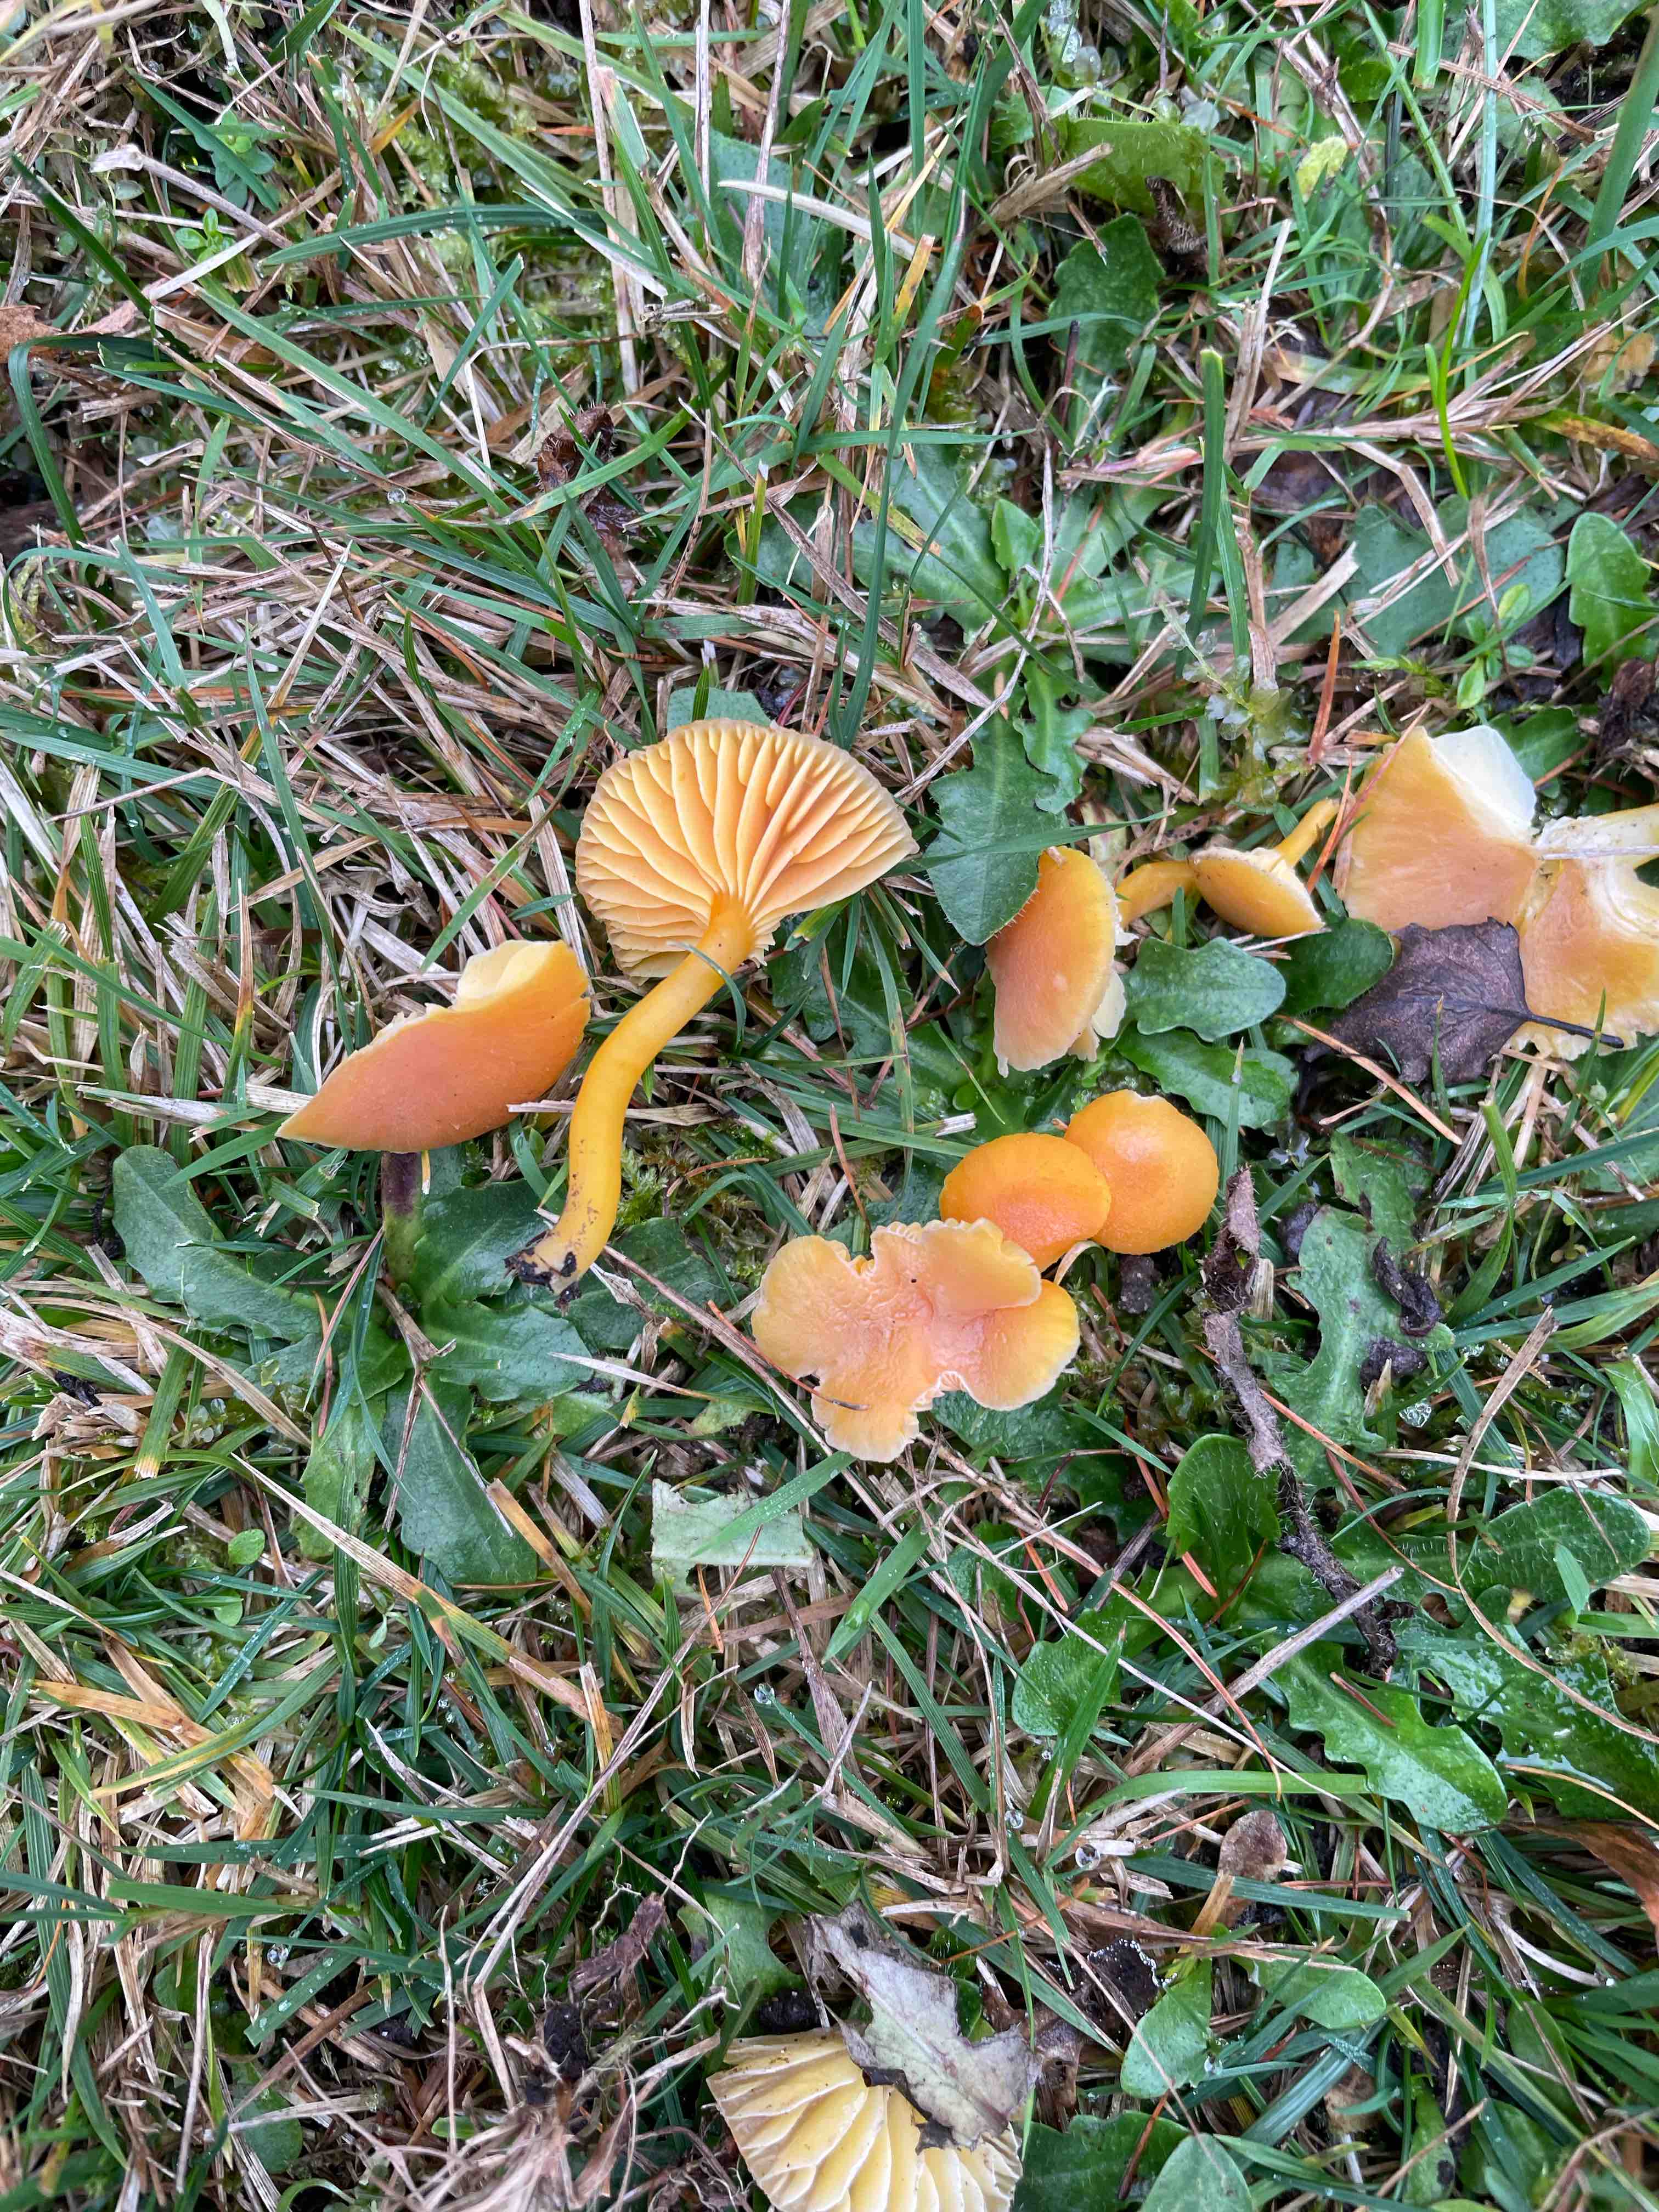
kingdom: Fungi
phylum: Basidiomycota
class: Agaricomycetes
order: Agaricales
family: Hygrophoraceae
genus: Hygrocybe
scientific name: Hygrocybe miniata
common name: mønje-vokshat
